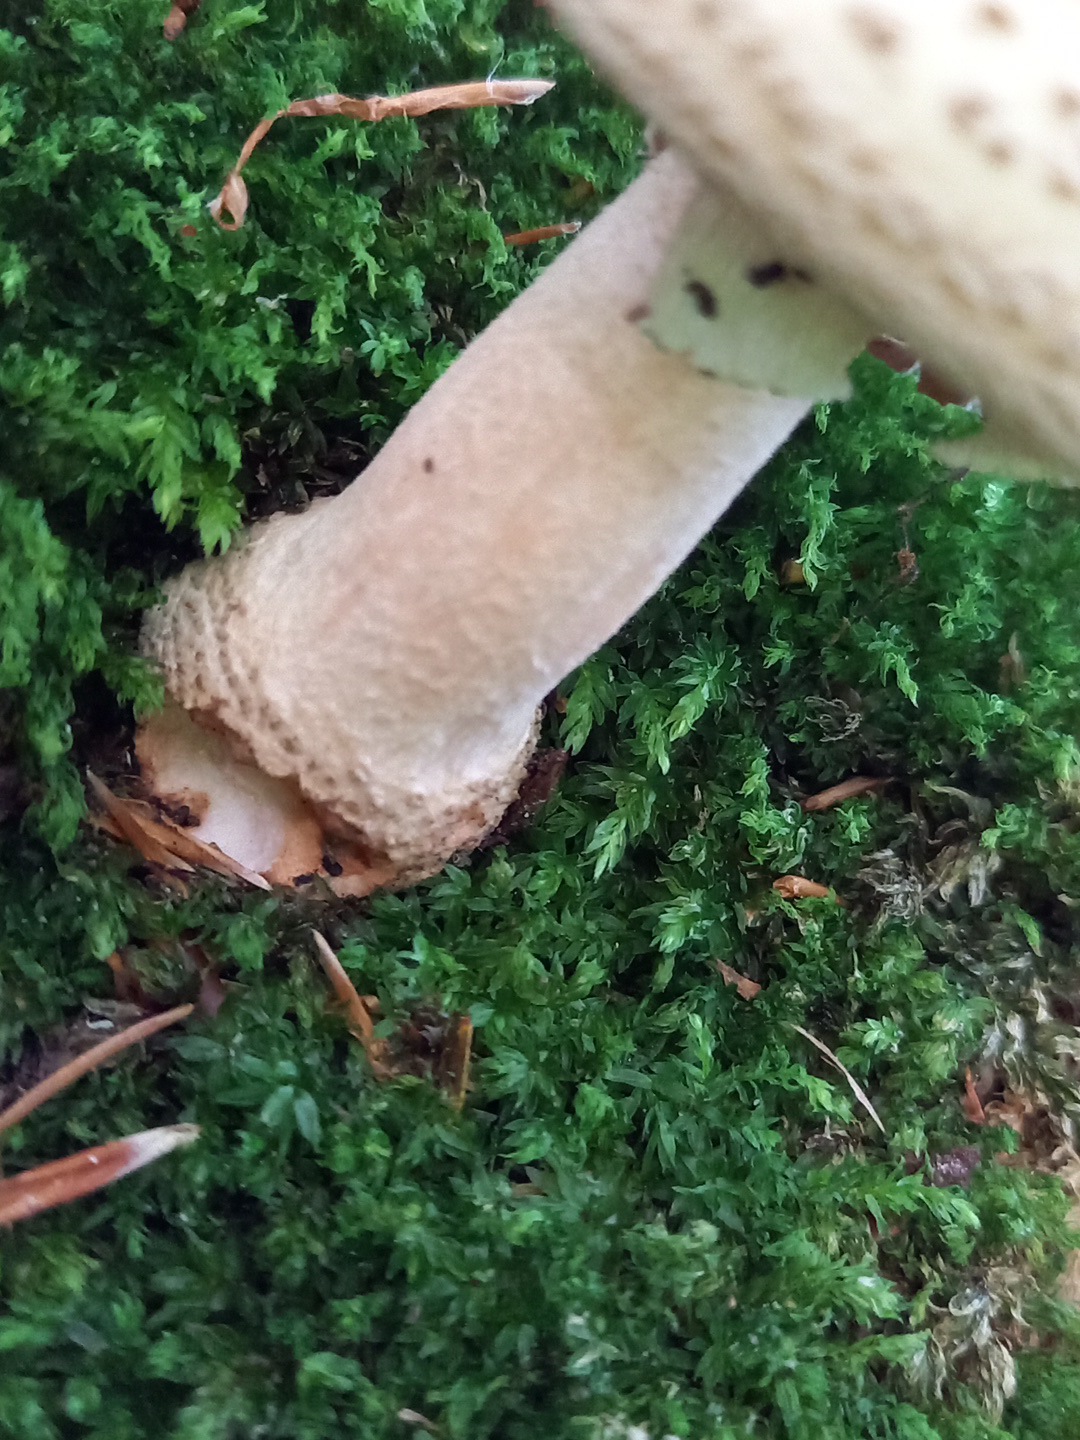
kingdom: Fungi
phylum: Basidiomycota
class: Agaricomycetes
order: Agaricales
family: Amanitaceae
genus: Amanita
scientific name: Amanita rubescens
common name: rødmende fluesvamp
